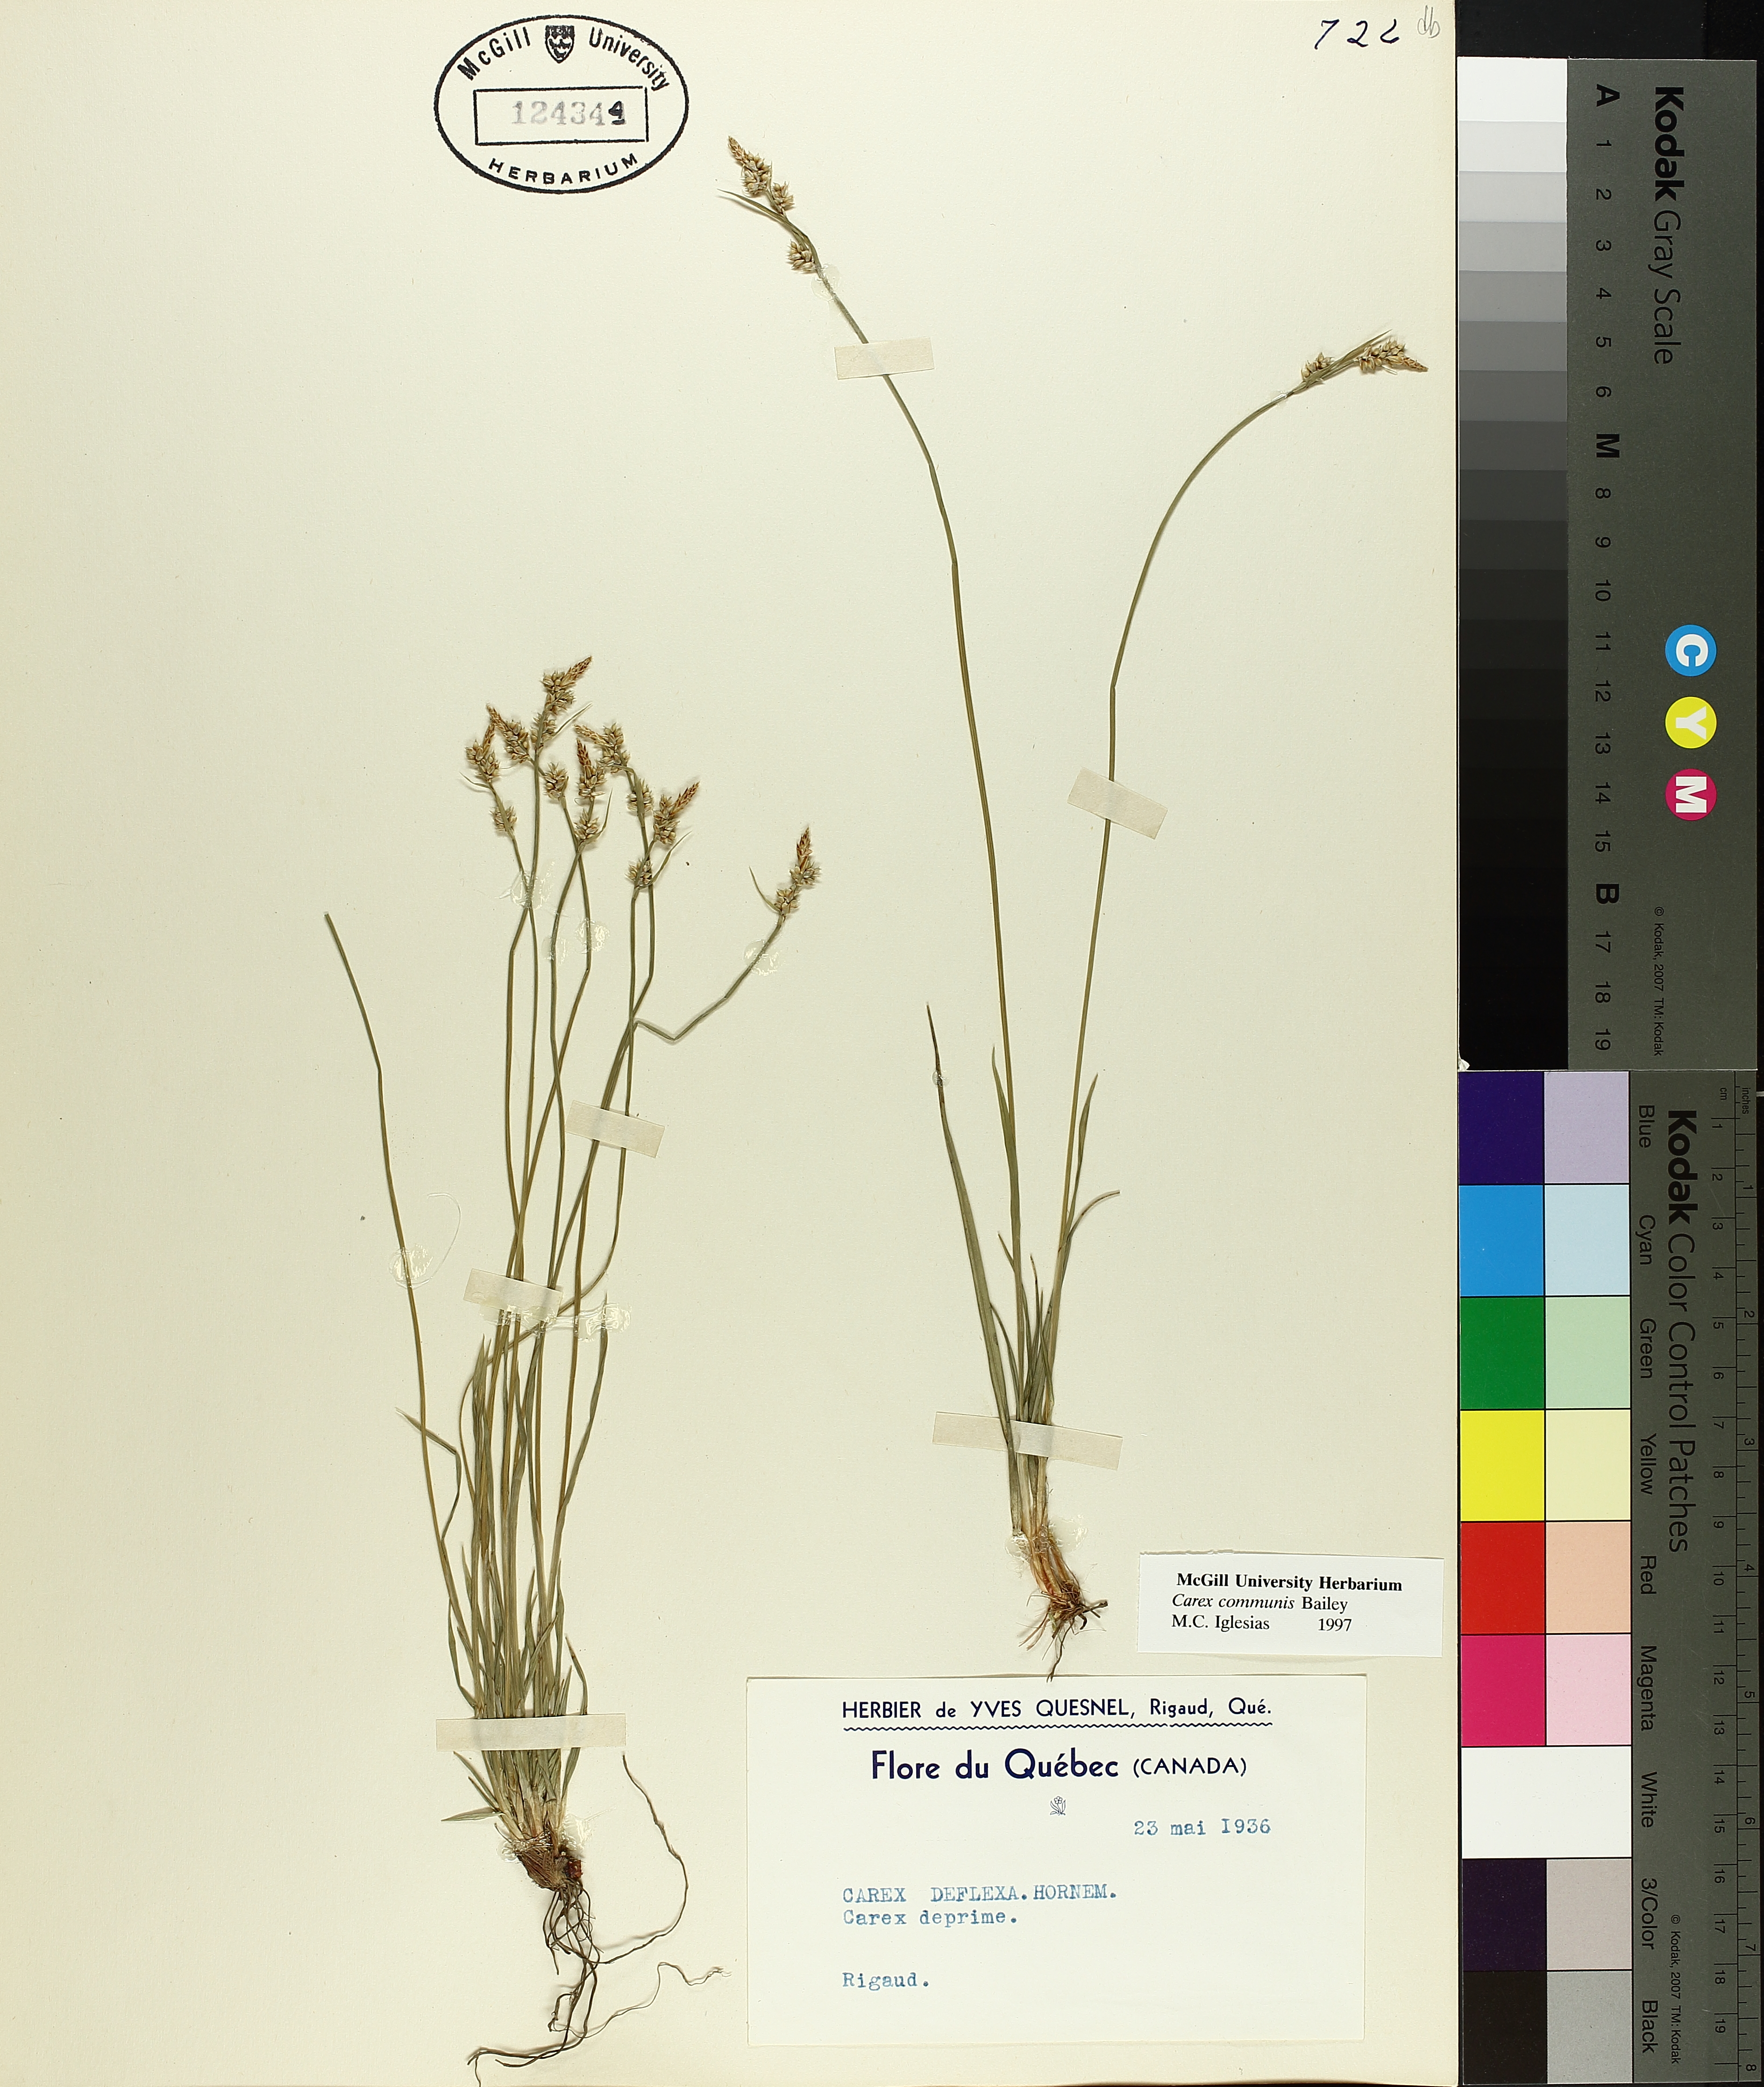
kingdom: Plantae
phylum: Tracheophyta
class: Liliopsida
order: Poales
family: Cyperaceae
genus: Carex
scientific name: Carex communis
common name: Colonial oak sedge
